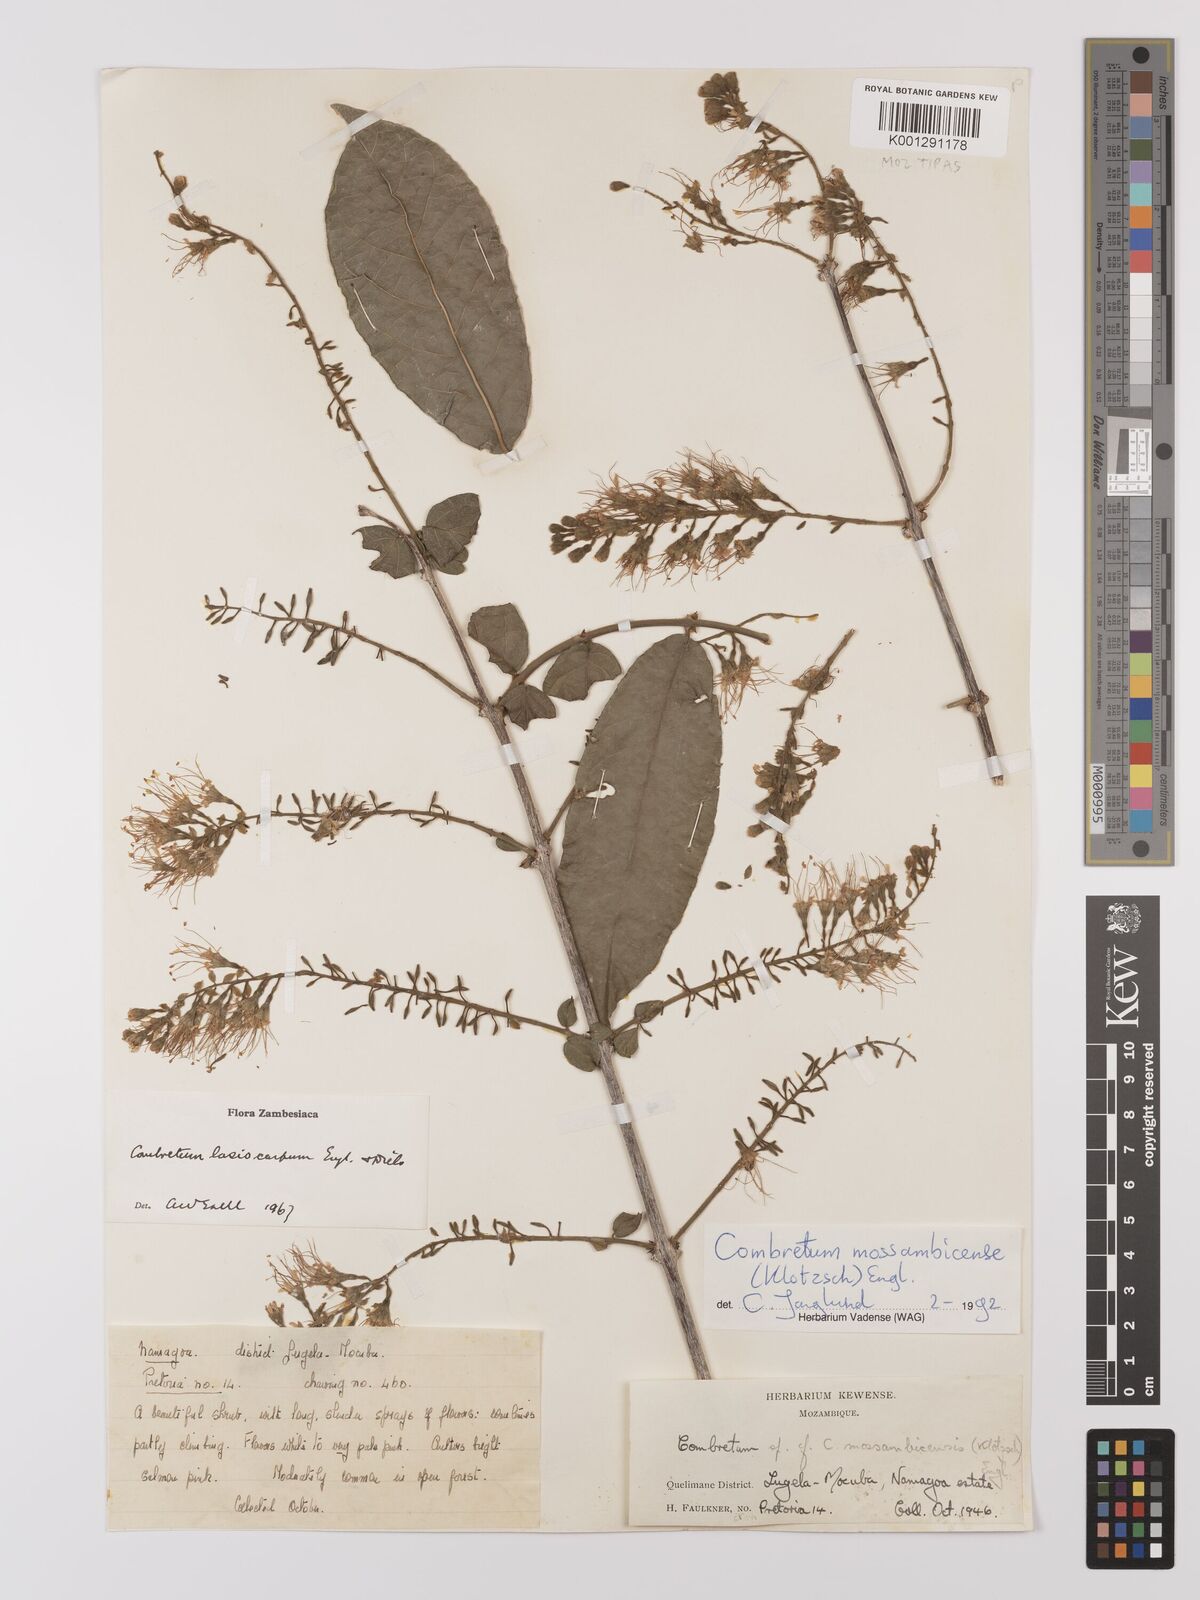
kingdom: Plantae
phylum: Tracheophyta
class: Magnoliopsida
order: Myrtales
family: Combretaceae
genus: Combretum
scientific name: Combretum mossambicense
